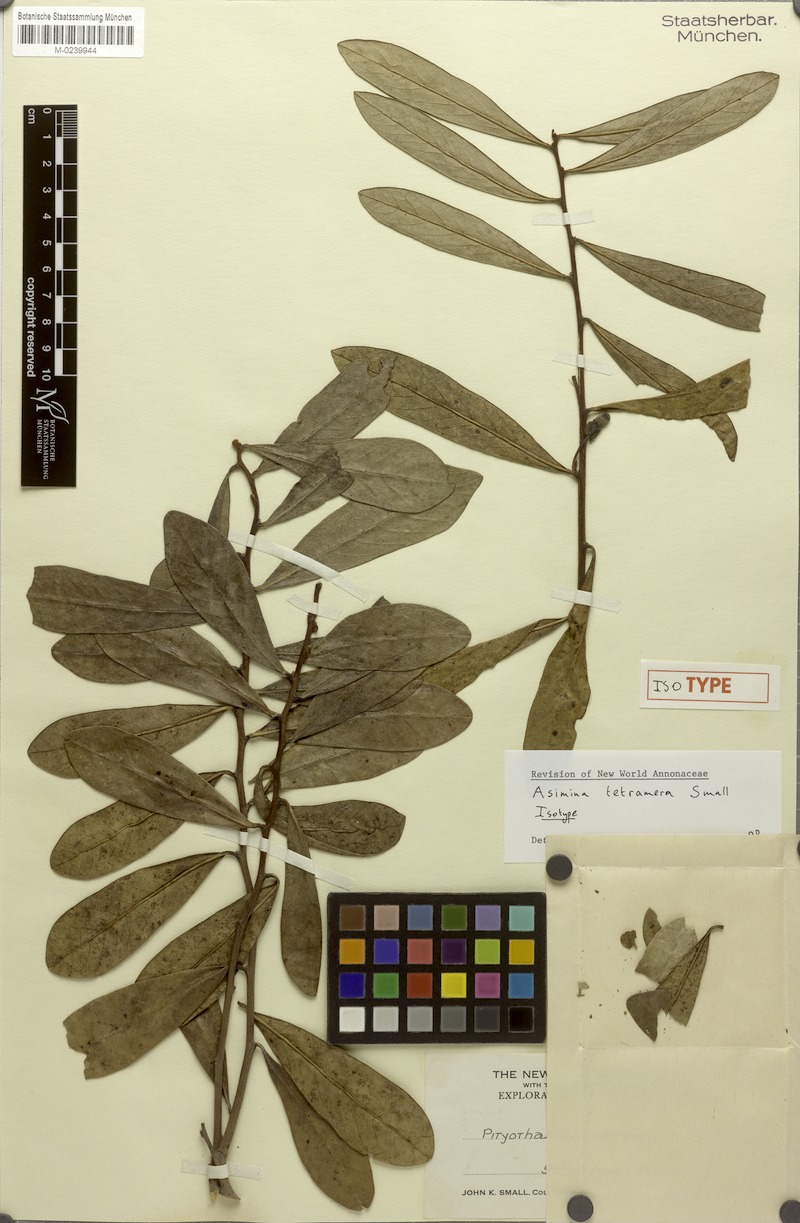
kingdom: Plantae
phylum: Tracheophyta
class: Magnoliopsida
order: Magnoliales
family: Annonaceae
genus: Asimina
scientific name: Asimina tetramera
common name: Four-petal pawpaw
